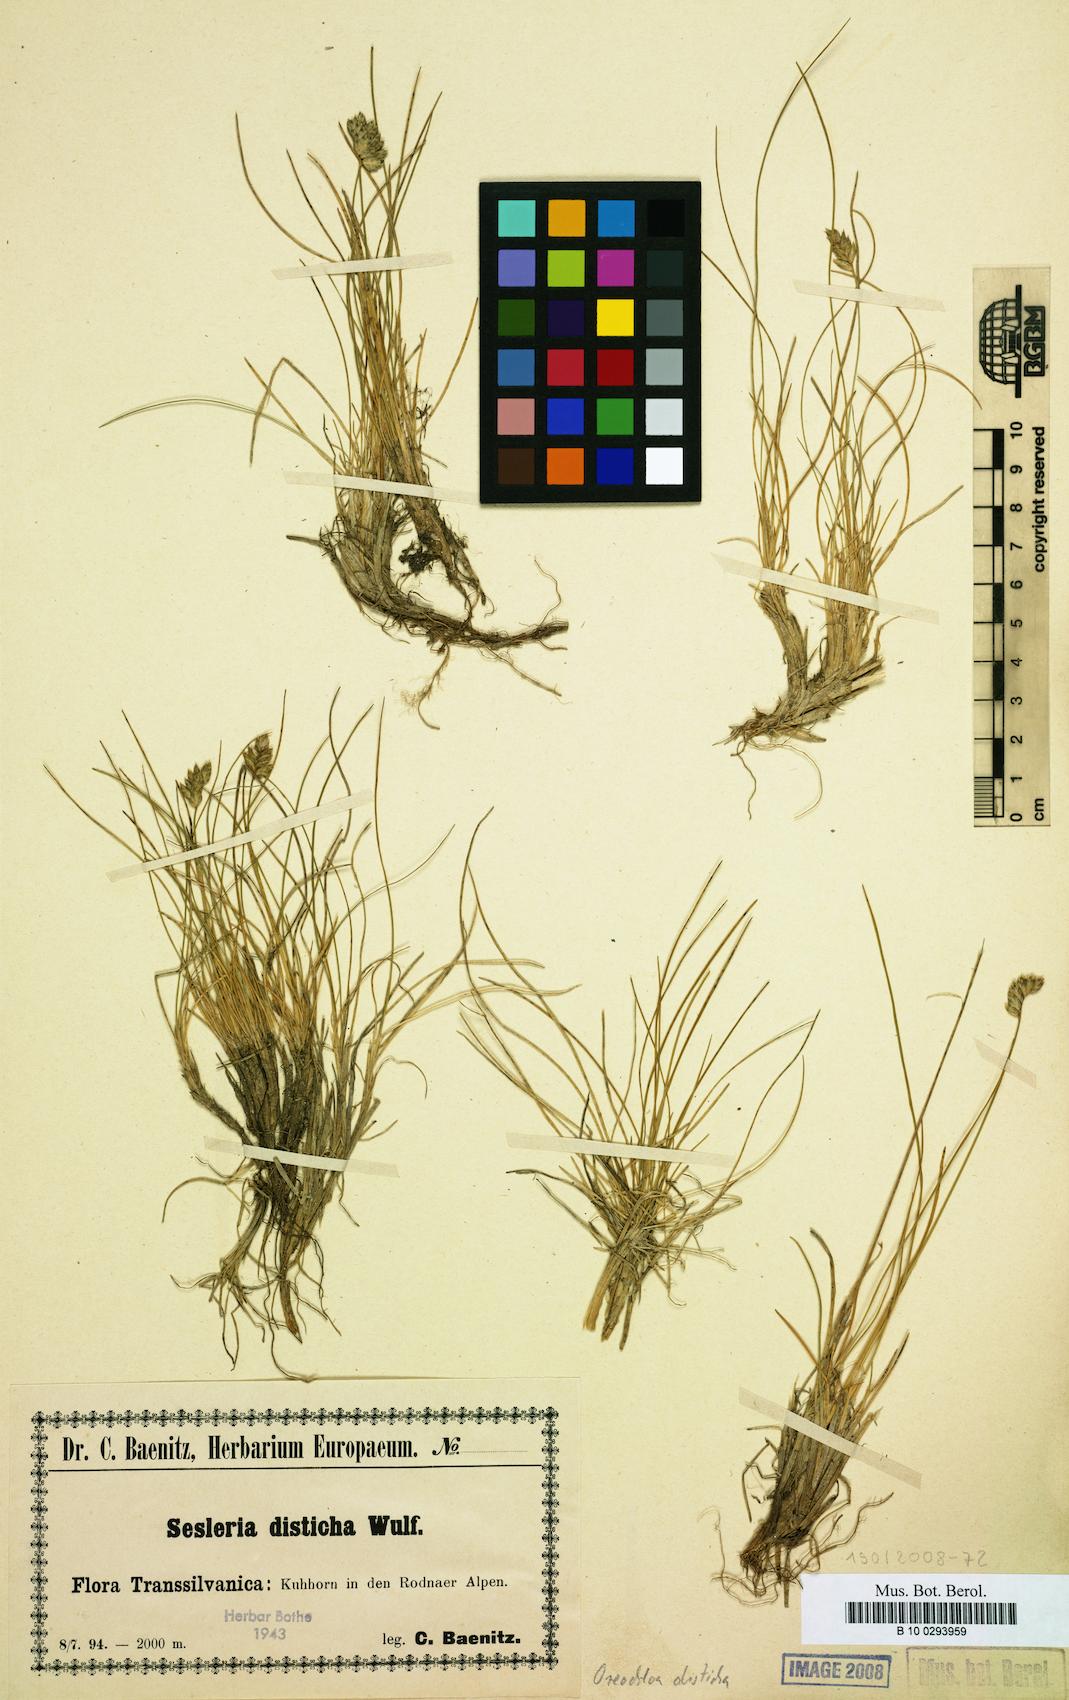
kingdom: Plantae
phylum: Tracheophyta
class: Liliopsida
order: Poales
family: Poaceae
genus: Oreochloa
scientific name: Oreochloa disticha
